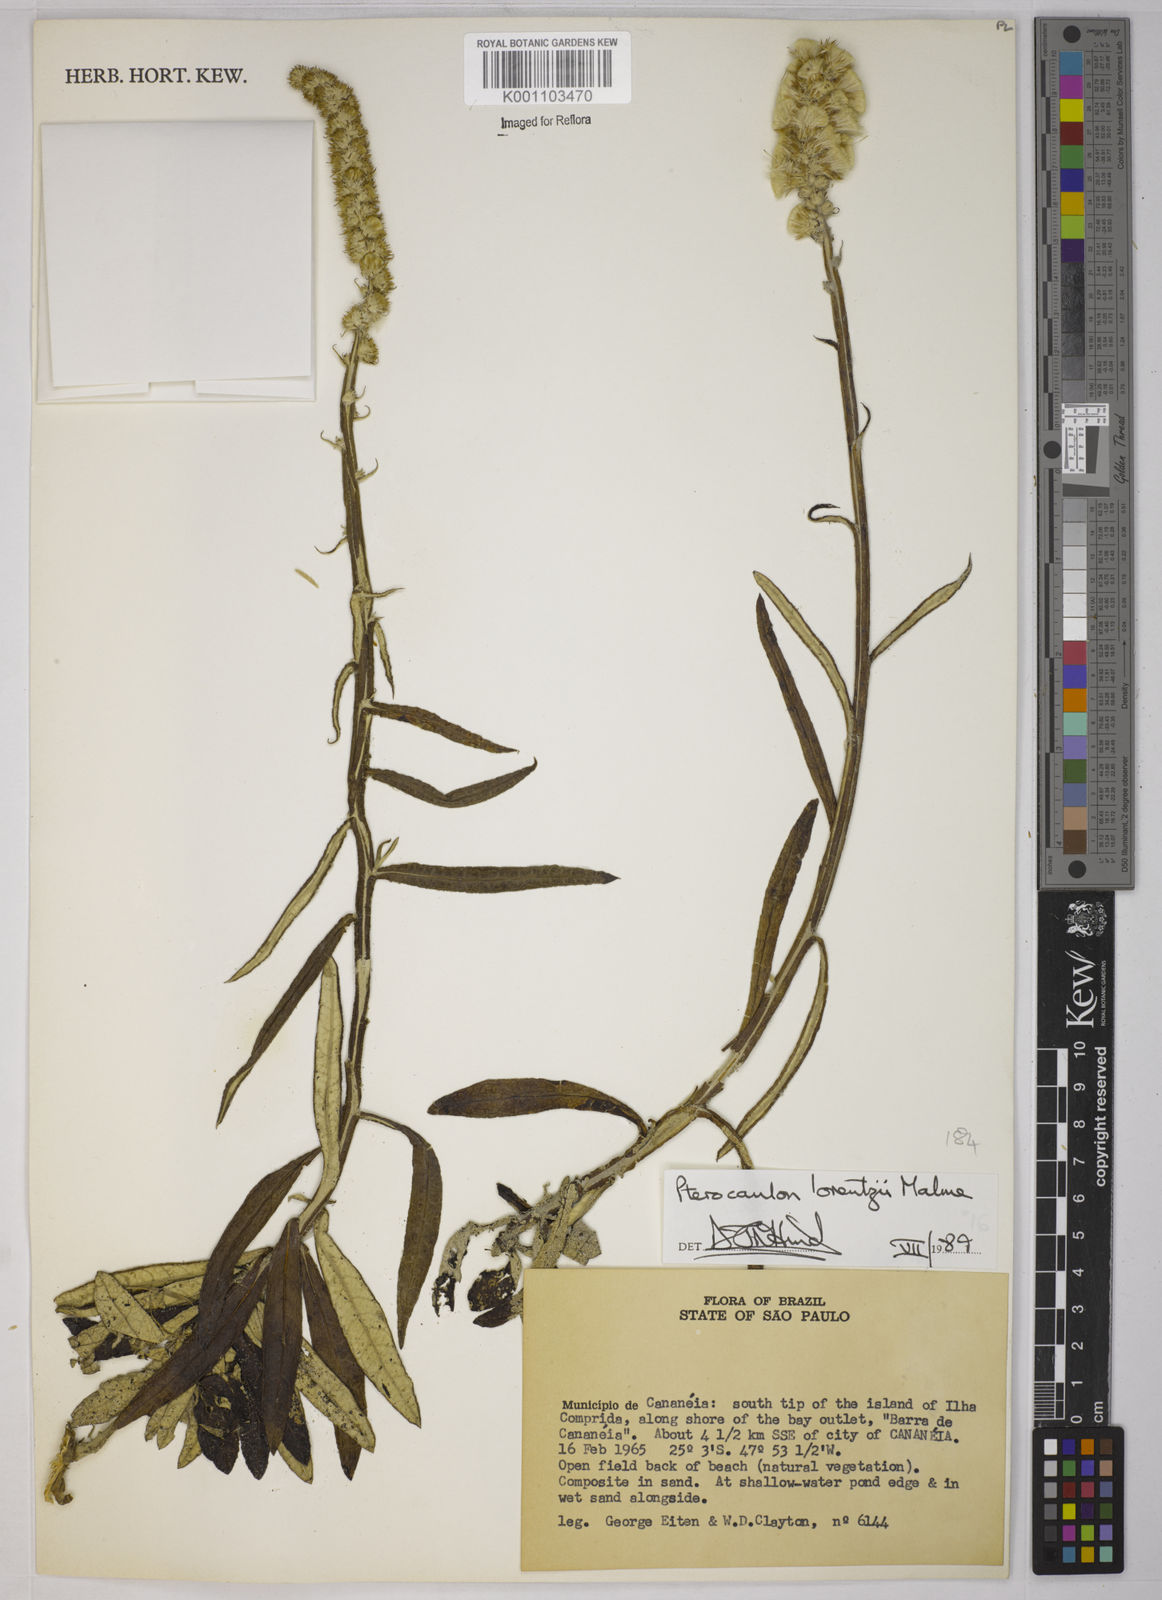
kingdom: Plantae
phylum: Tracheophyta
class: Magnoliopsida
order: Asterales
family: Asteraceae
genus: Pterocaulon
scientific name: Pterocaulon lorentzii
